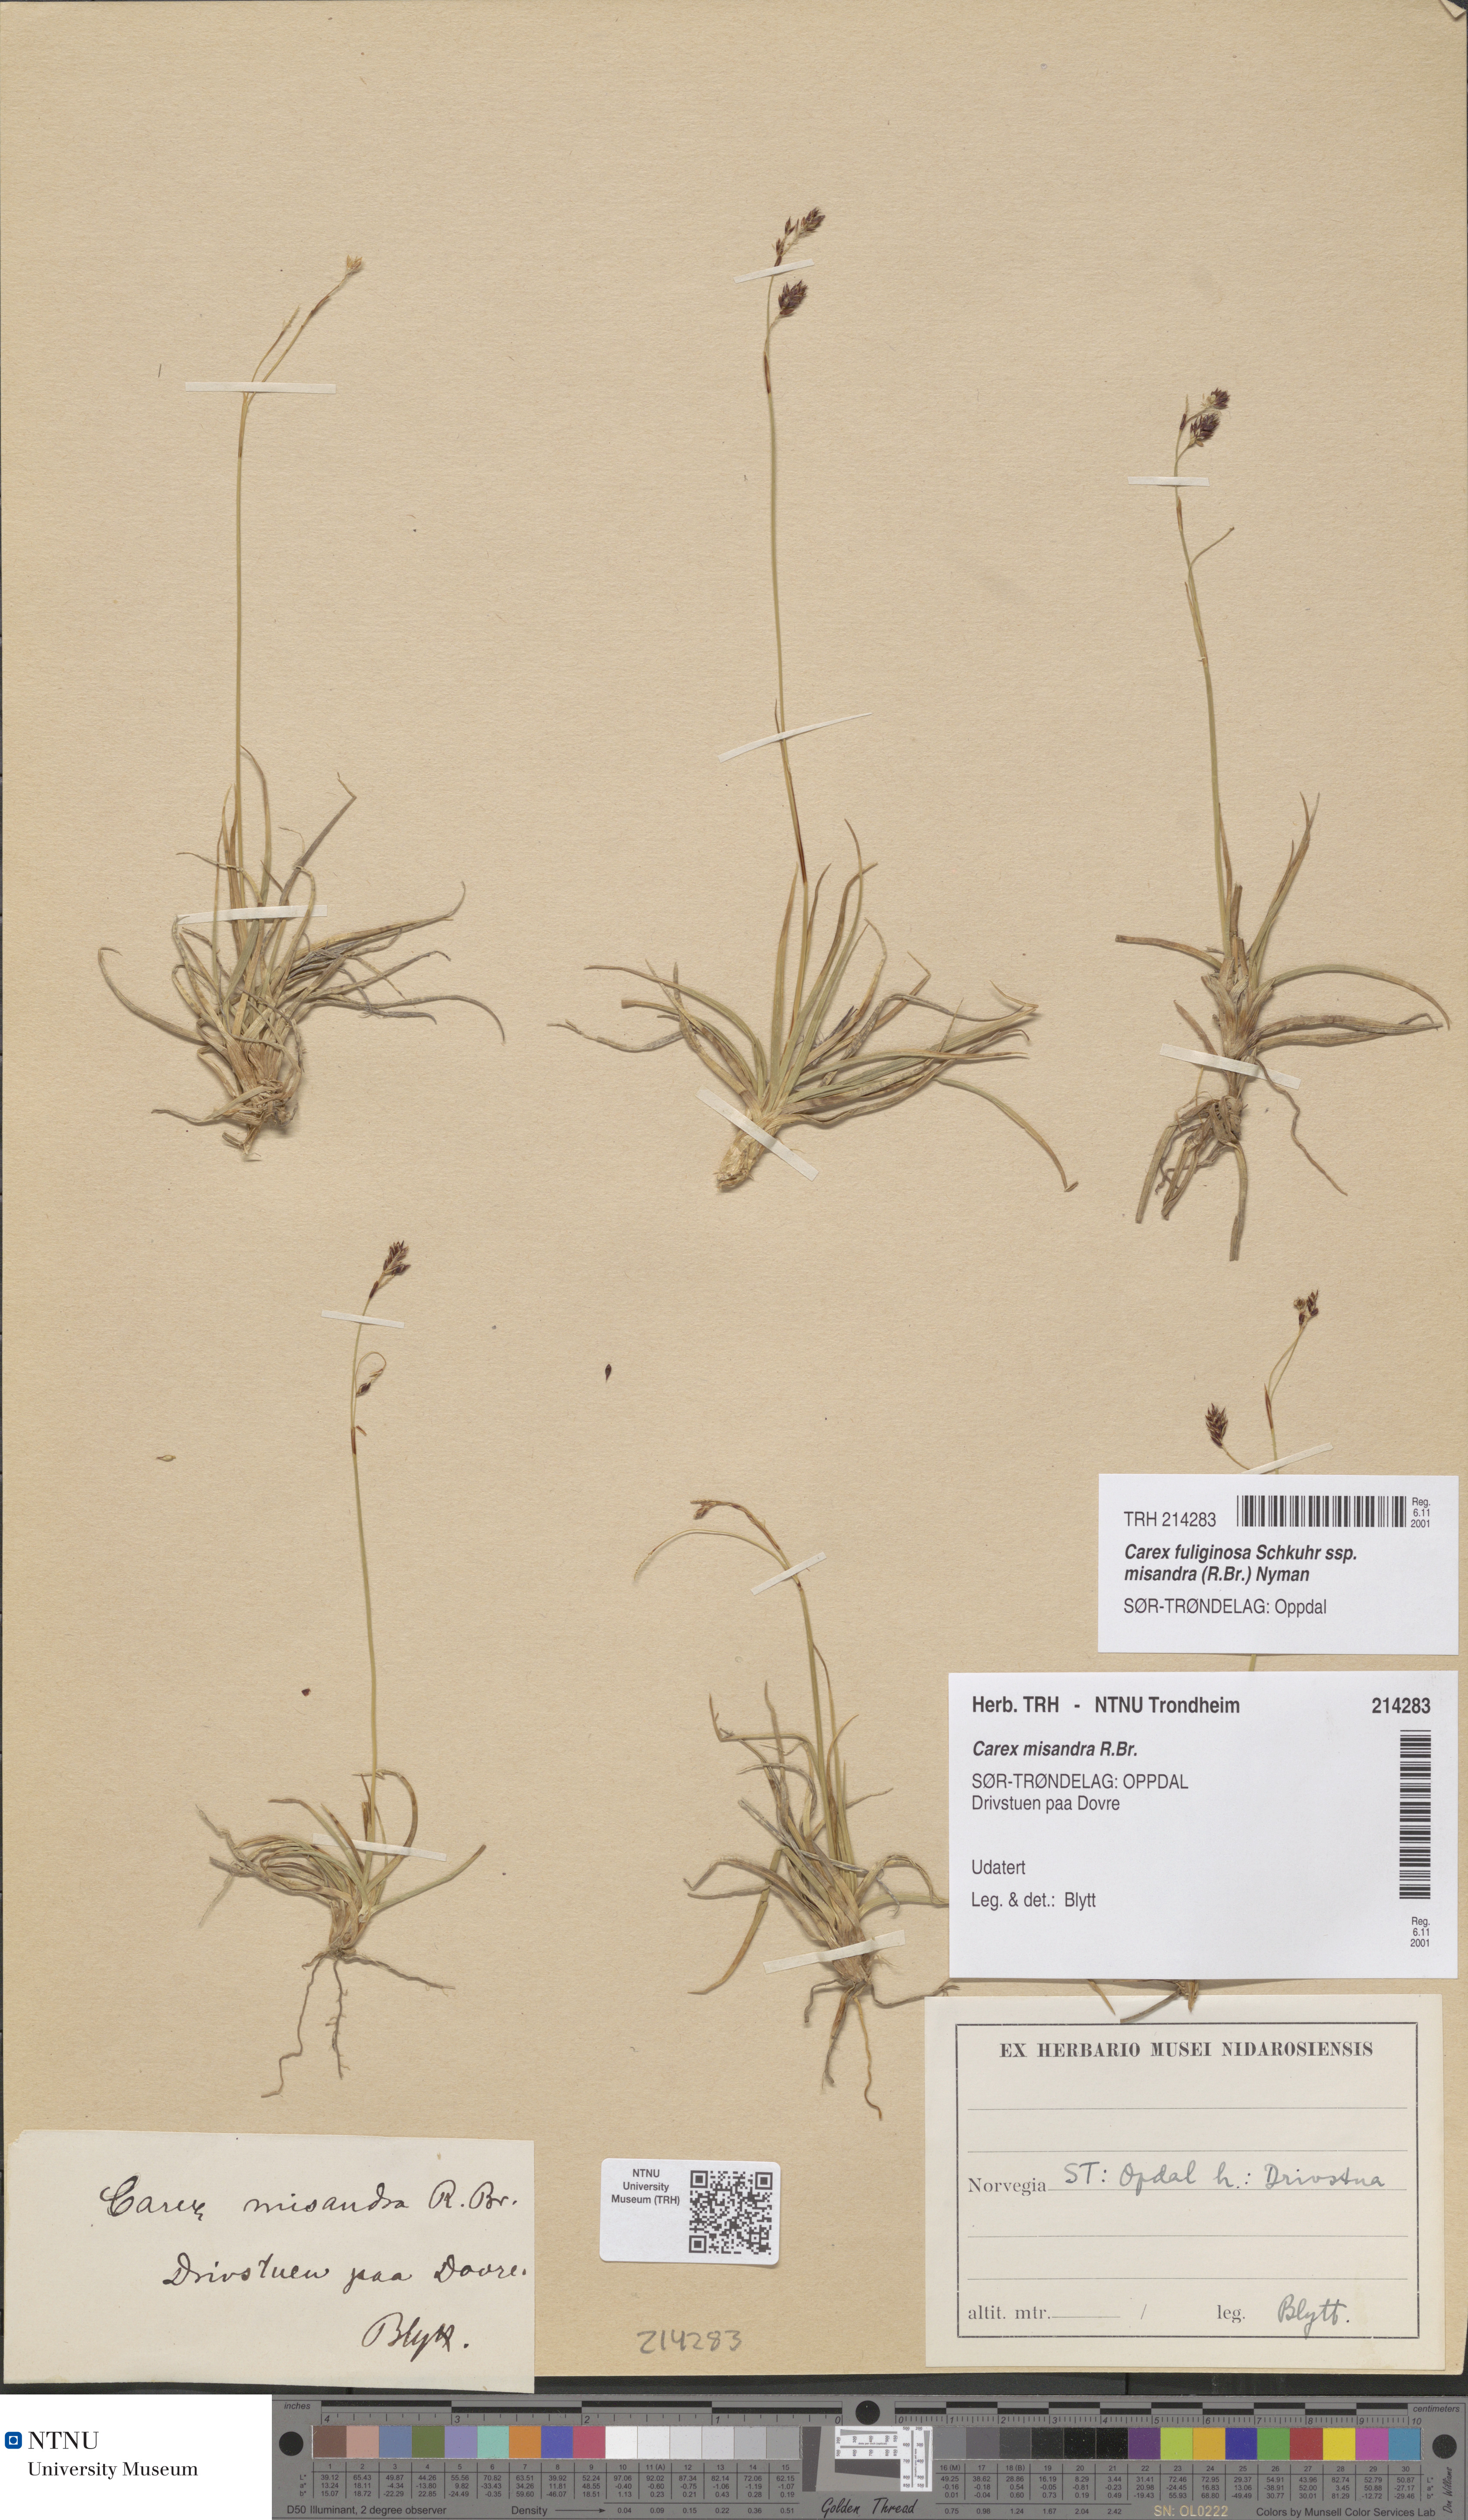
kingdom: Plantae
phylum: Tracheophyta
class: Liliopsida
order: Poales
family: Cyperaceae
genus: Carex
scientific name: Carex fuliginosa
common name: Few-flowered sedge
